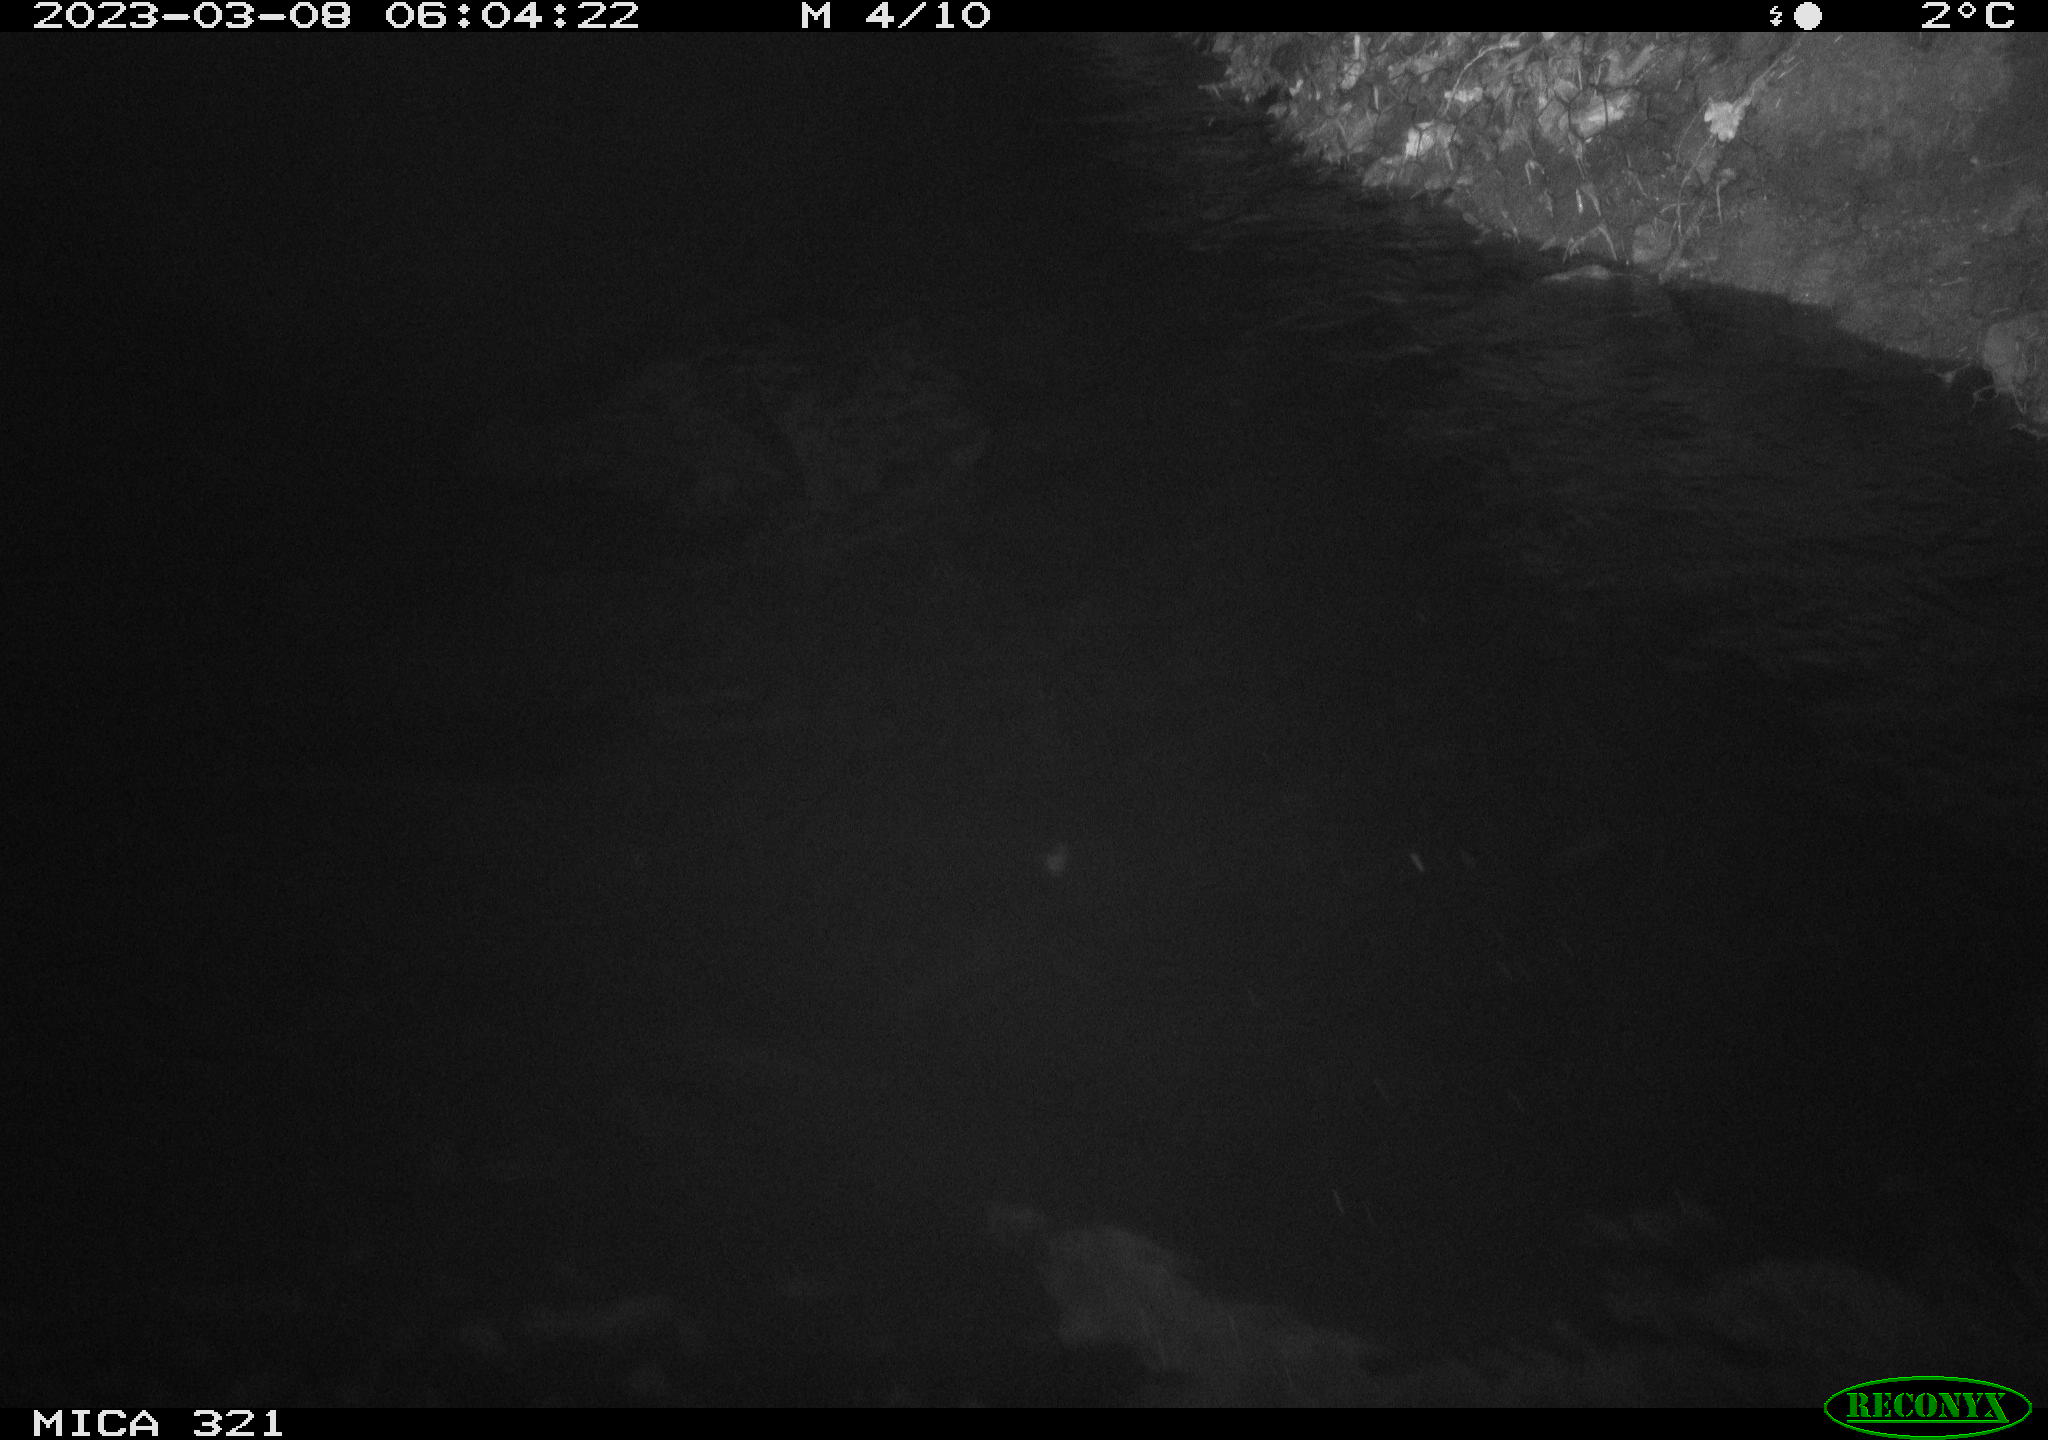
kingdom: Animalia
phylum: Chordata
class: Aves
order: Anseriformes
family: Anatidae
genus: Anas
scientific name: Anas
